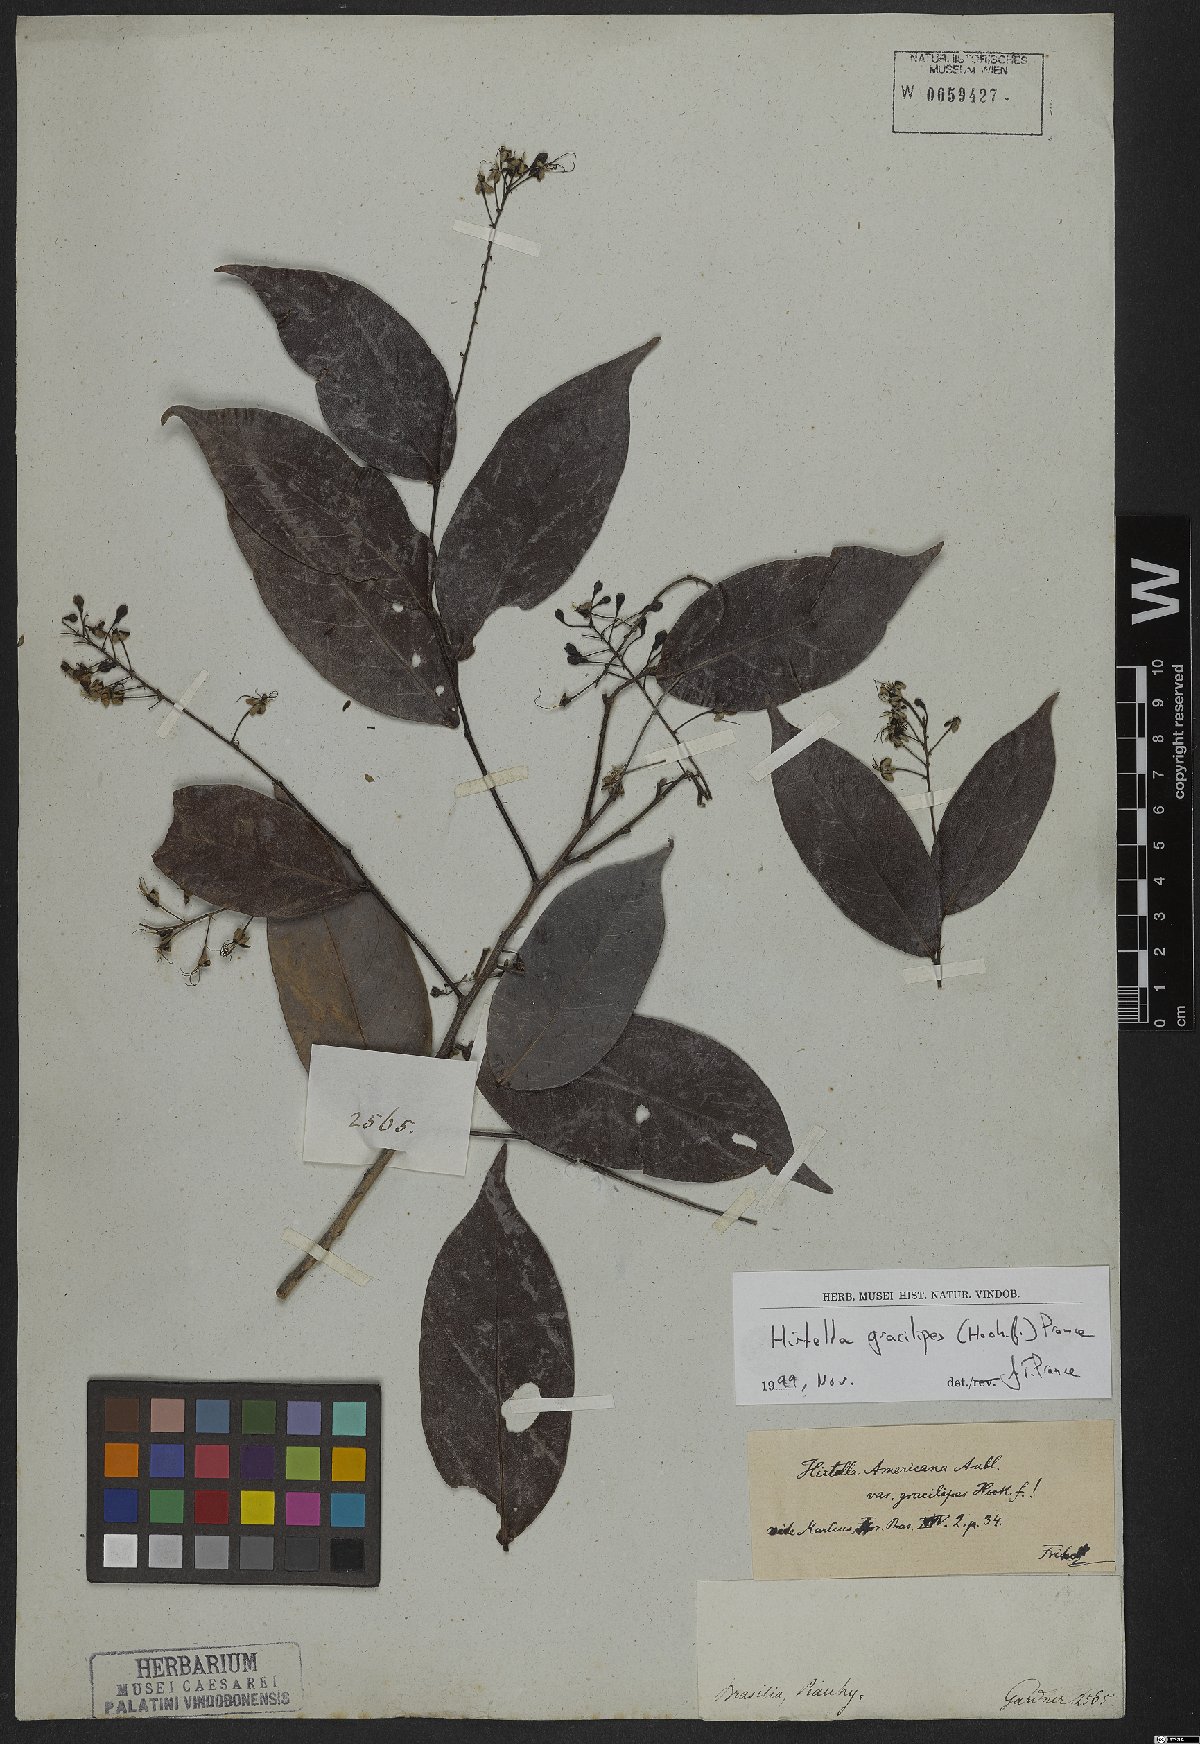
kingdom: Plantae
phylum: Tracheophyta
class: Magnoliopsida
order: Malpighiales
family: Chrysobalanaceae
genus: Hirtella
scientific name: Hirtella gracilipes
